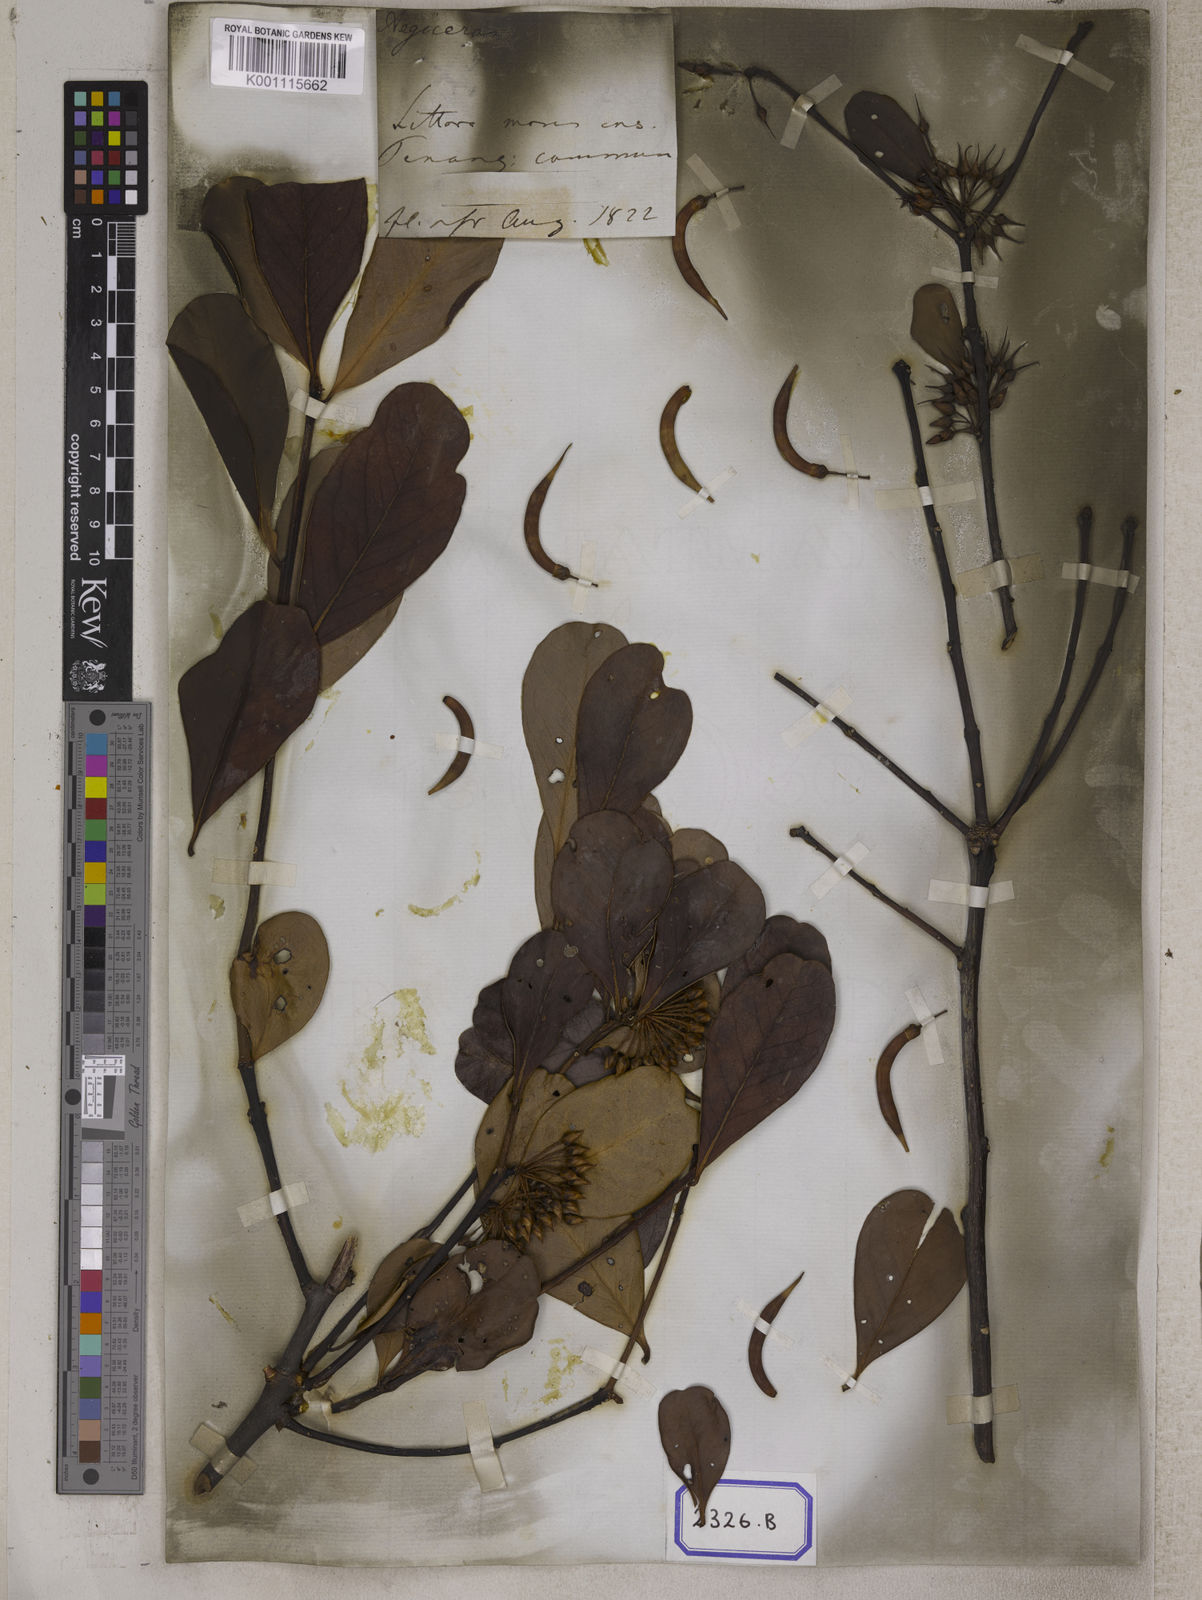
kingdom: Plantae
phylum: Tracheophyta
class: Magnoliopsida
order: Ericales
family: Primulaceae
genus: Aegiceras
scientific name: Aegiceras corniculatum
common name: River mangrove
